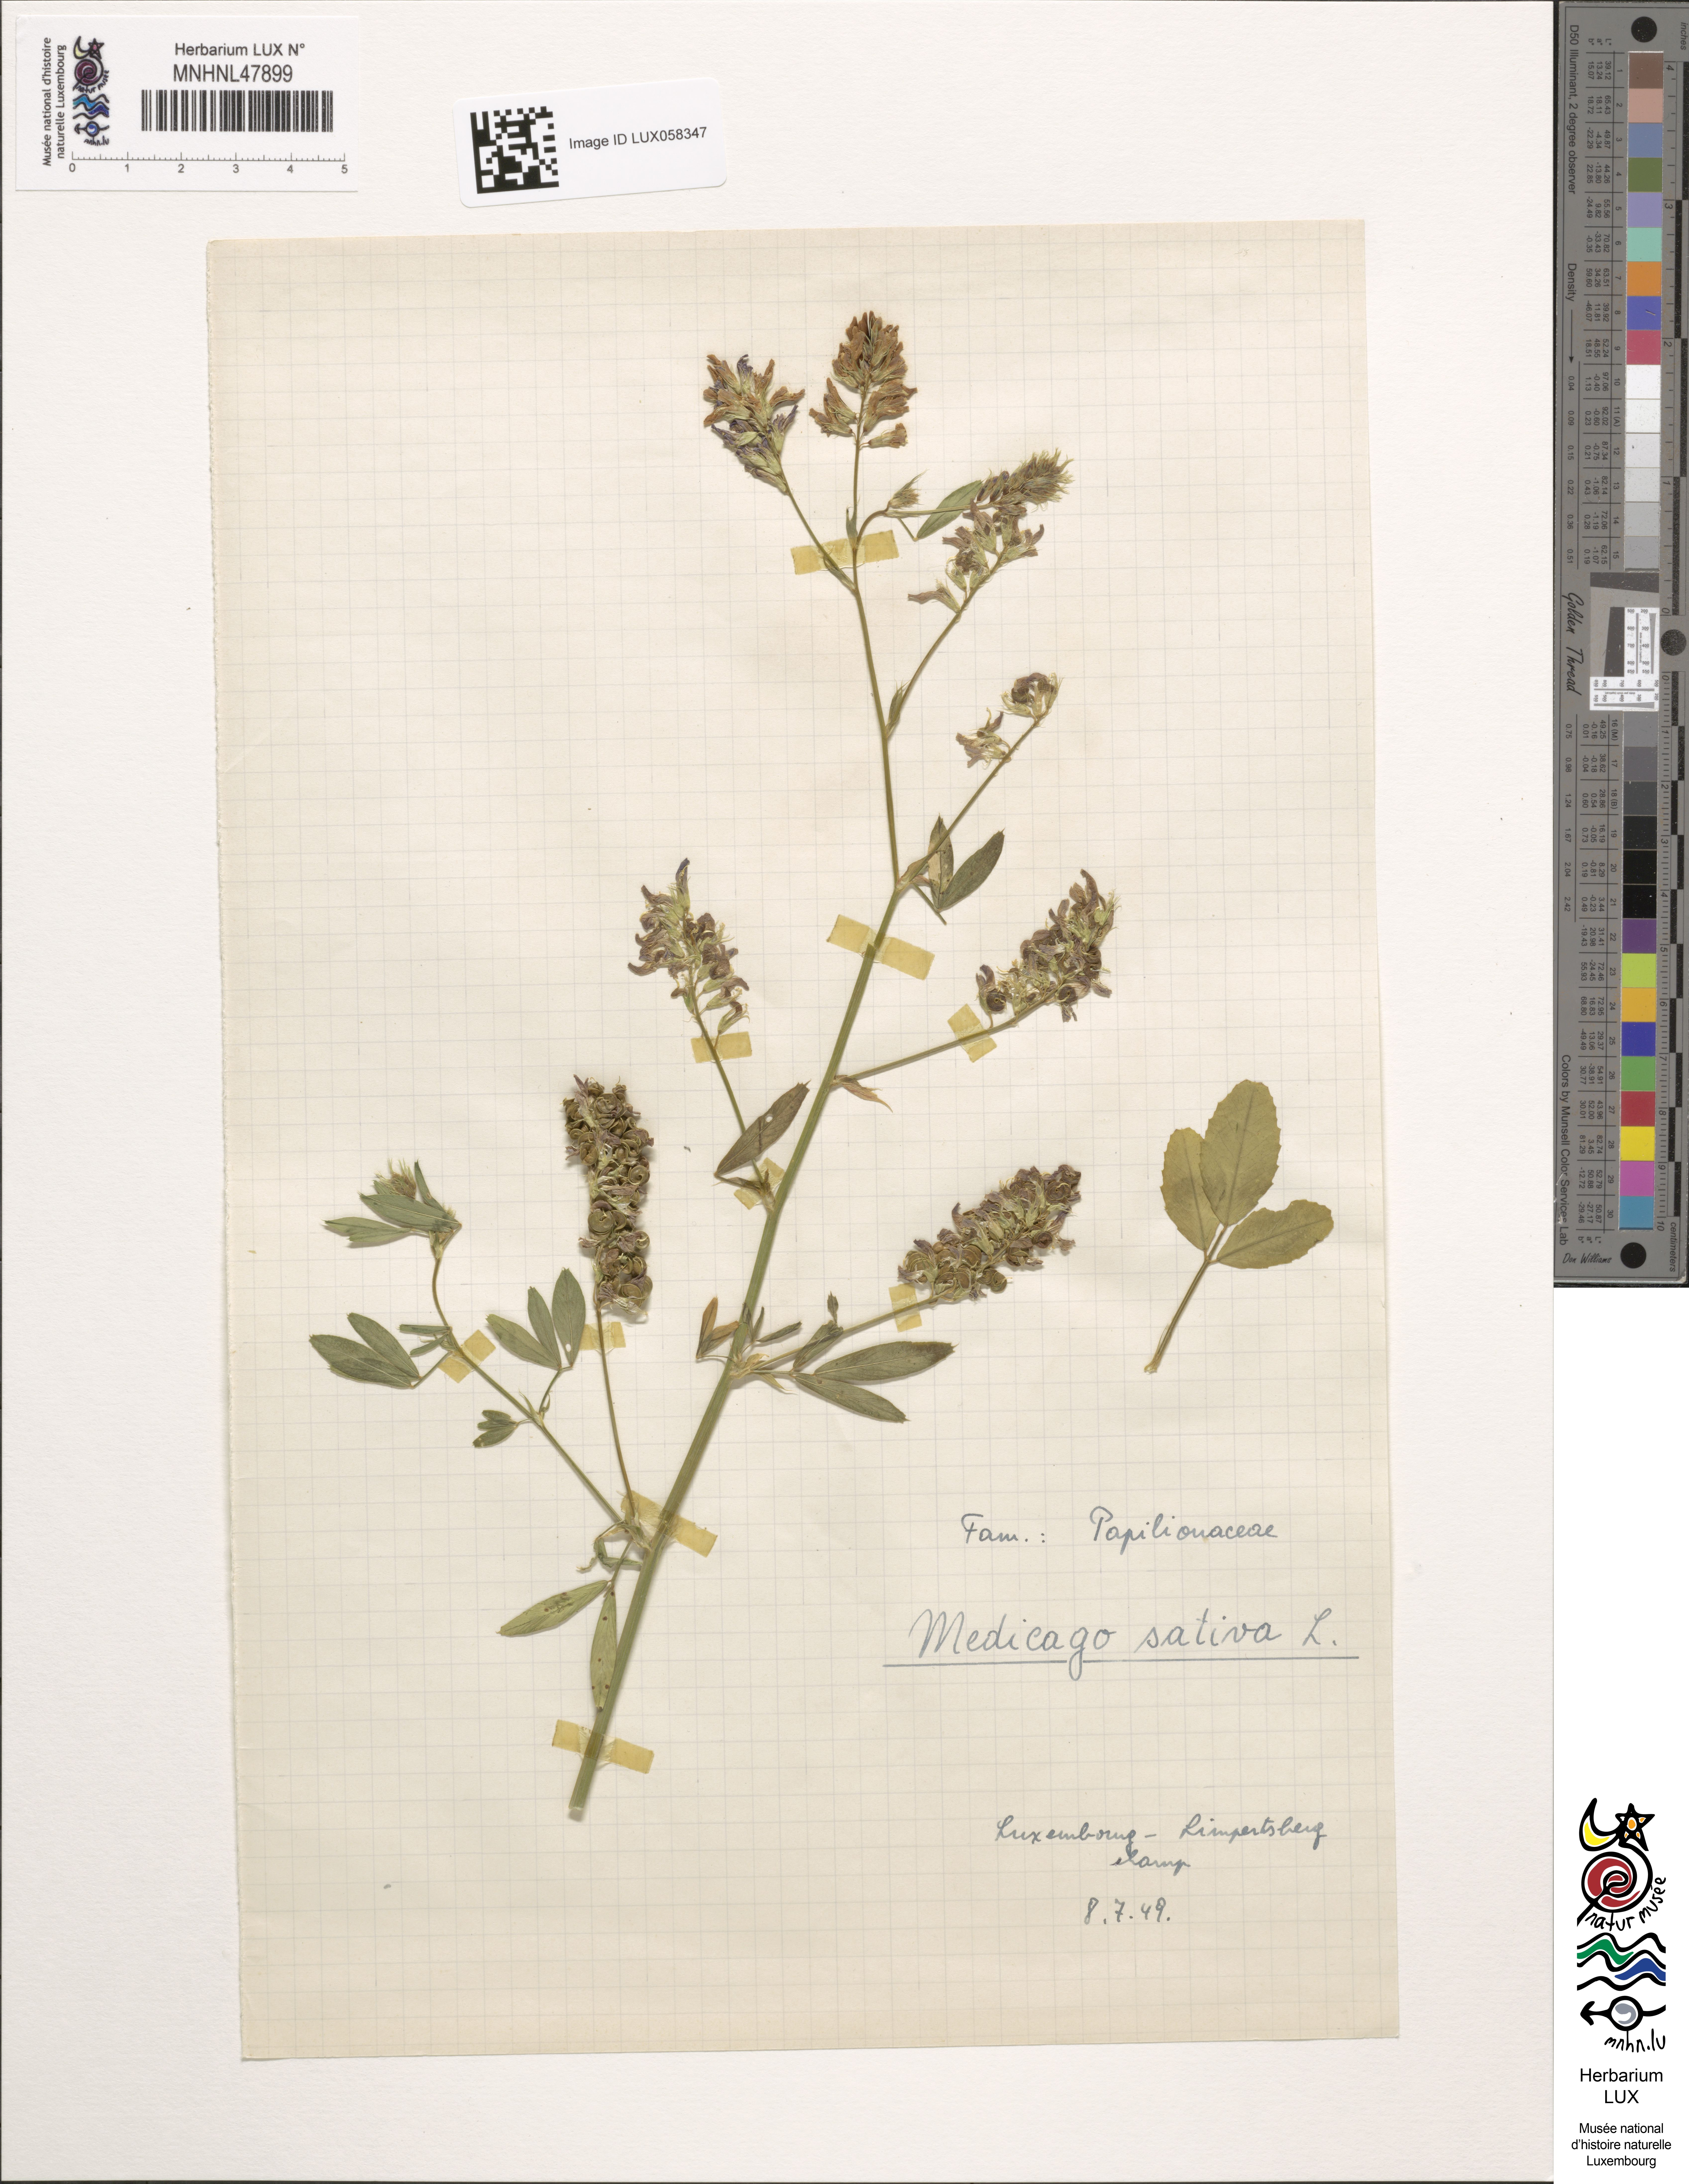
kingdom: Plantae
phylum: Tracheophyta
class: Magnoliopsida
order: Fabales
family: Fabaceae
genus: Medicago
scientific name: Medicago sativa
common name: Alfalfa
